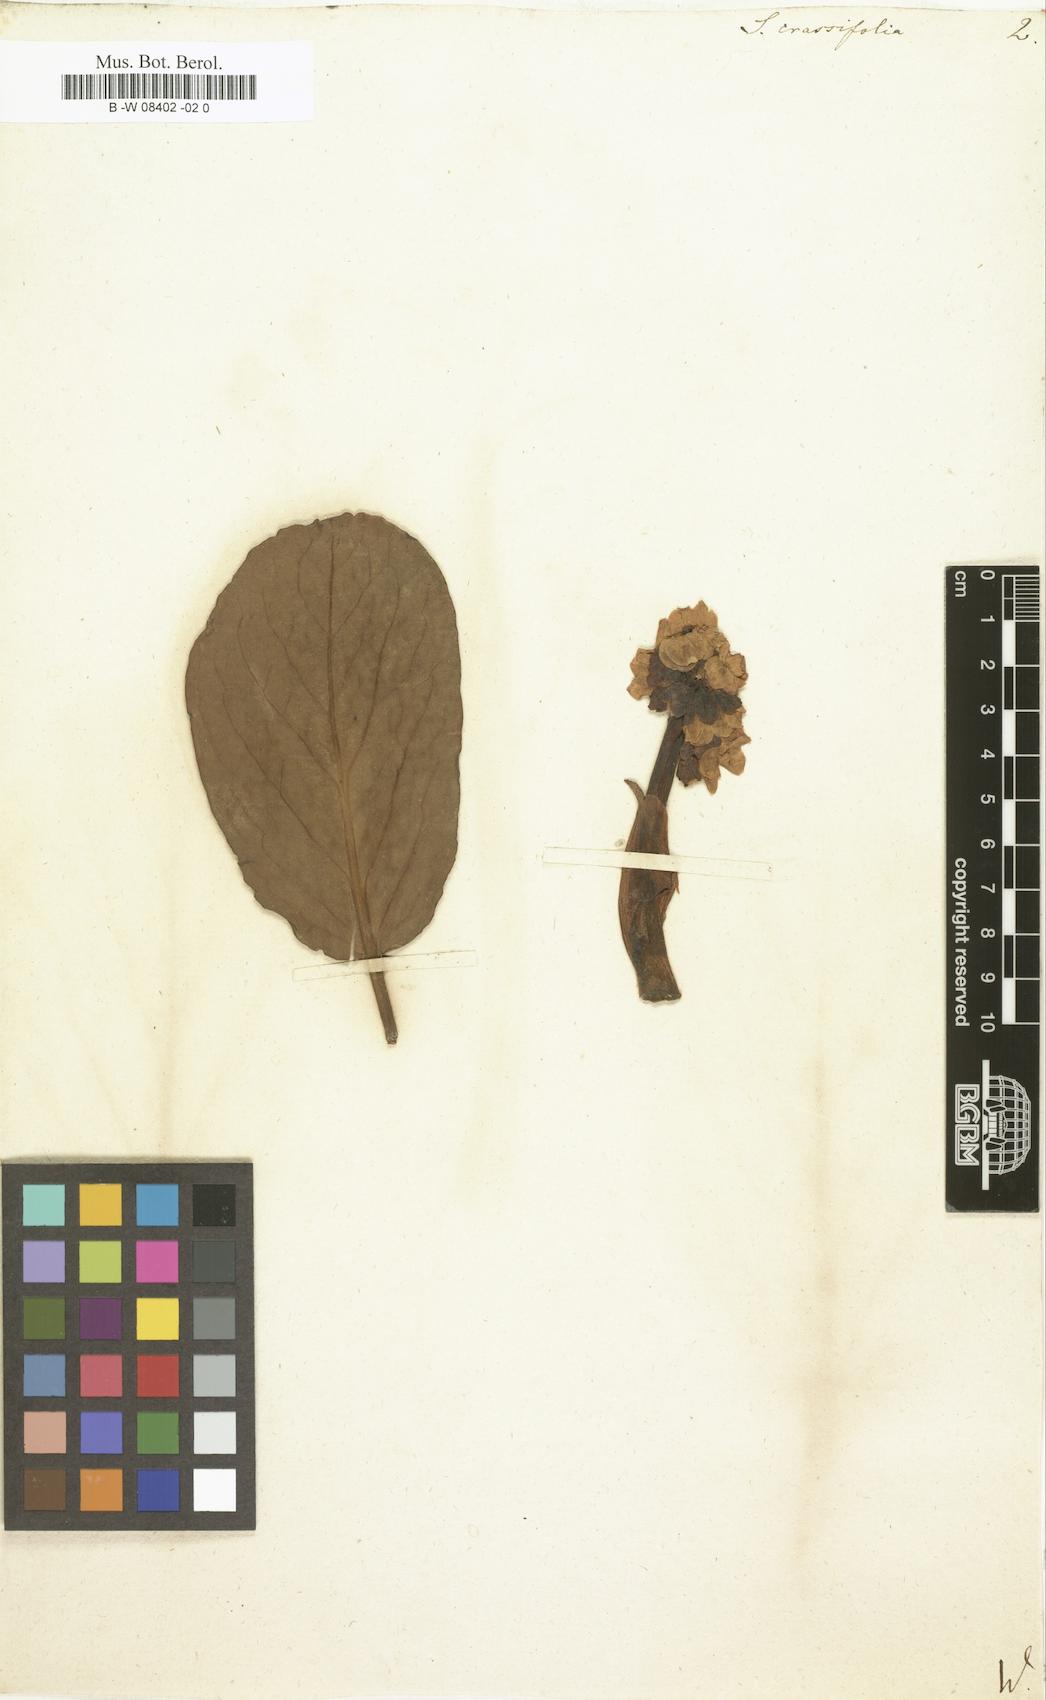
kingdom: Plantae
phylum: Tracheophyta
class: Magnoliopsida
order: Saxifragales
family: Saxifragaceae
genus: Bergenia
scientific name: Bergenia crassifolia
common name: Elephant-ears
